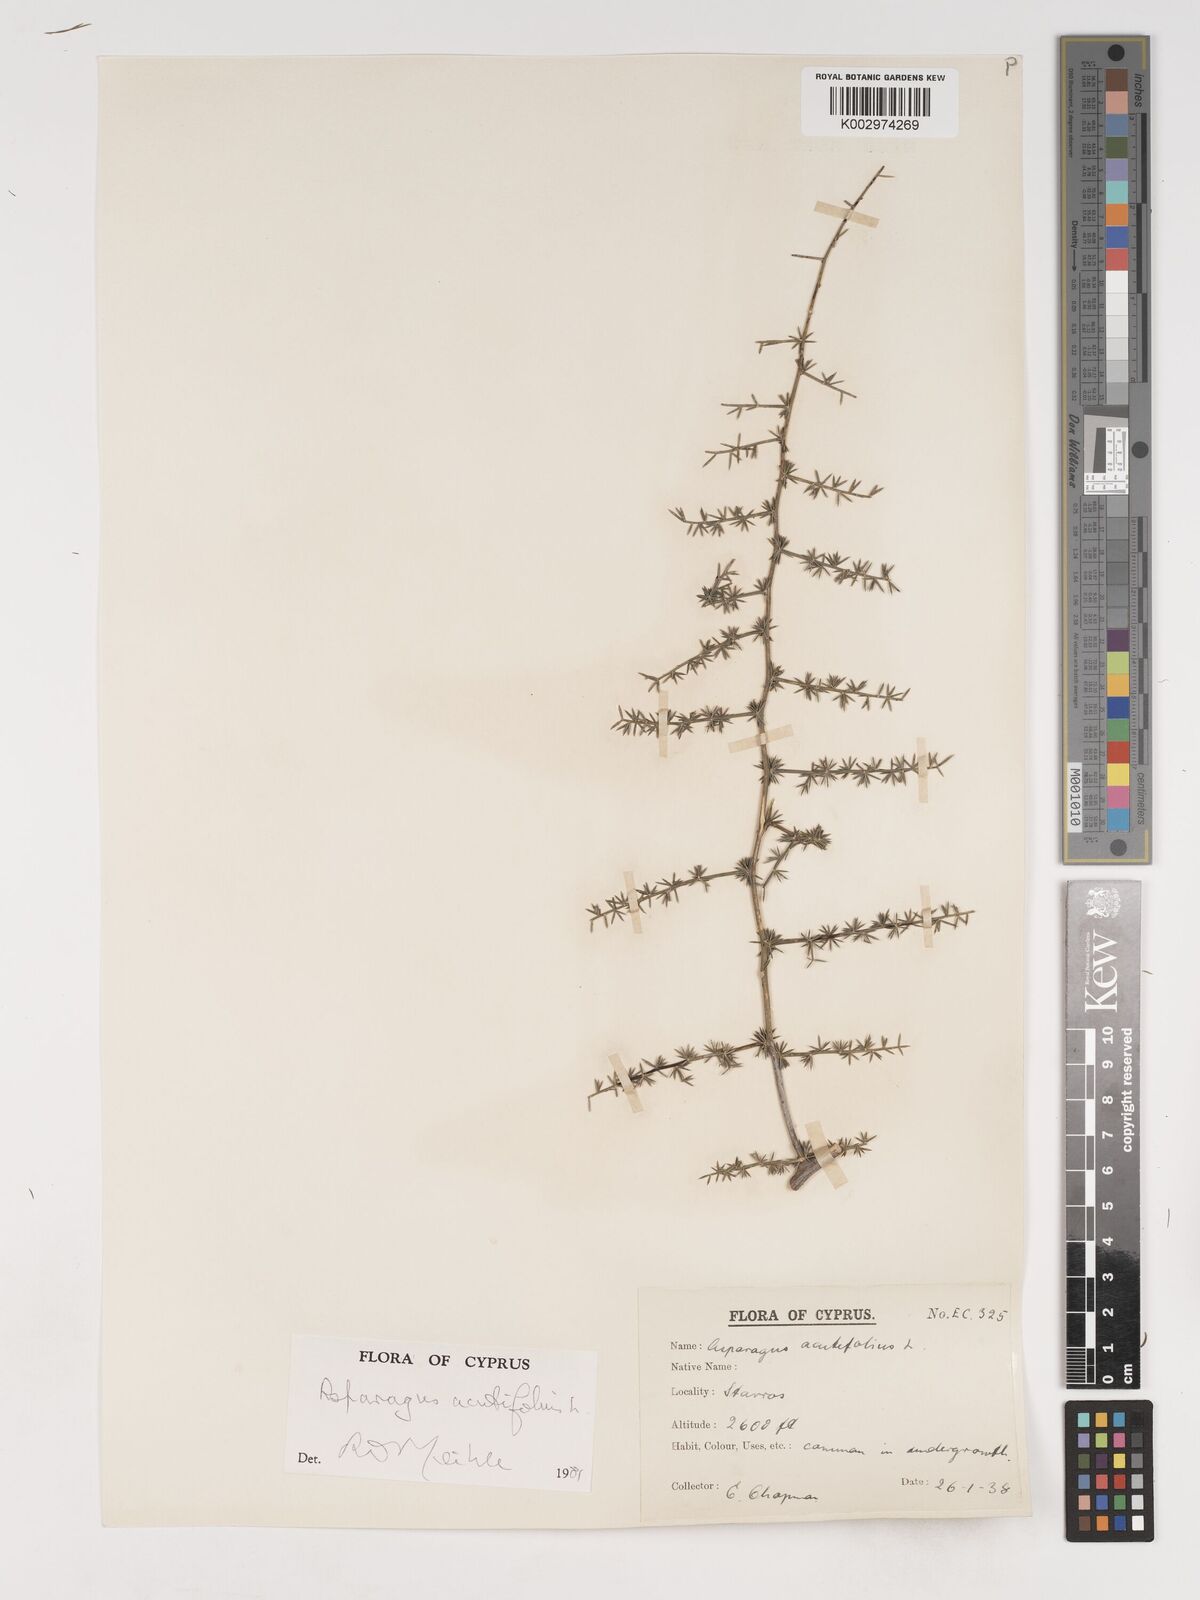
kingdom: Plantae
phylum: Tracheophyta
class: Liliopsida
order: Asparagales
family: Asparagaceae
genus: Asparagus
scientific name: Asparagus acutifolius
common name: Wild asparagus
